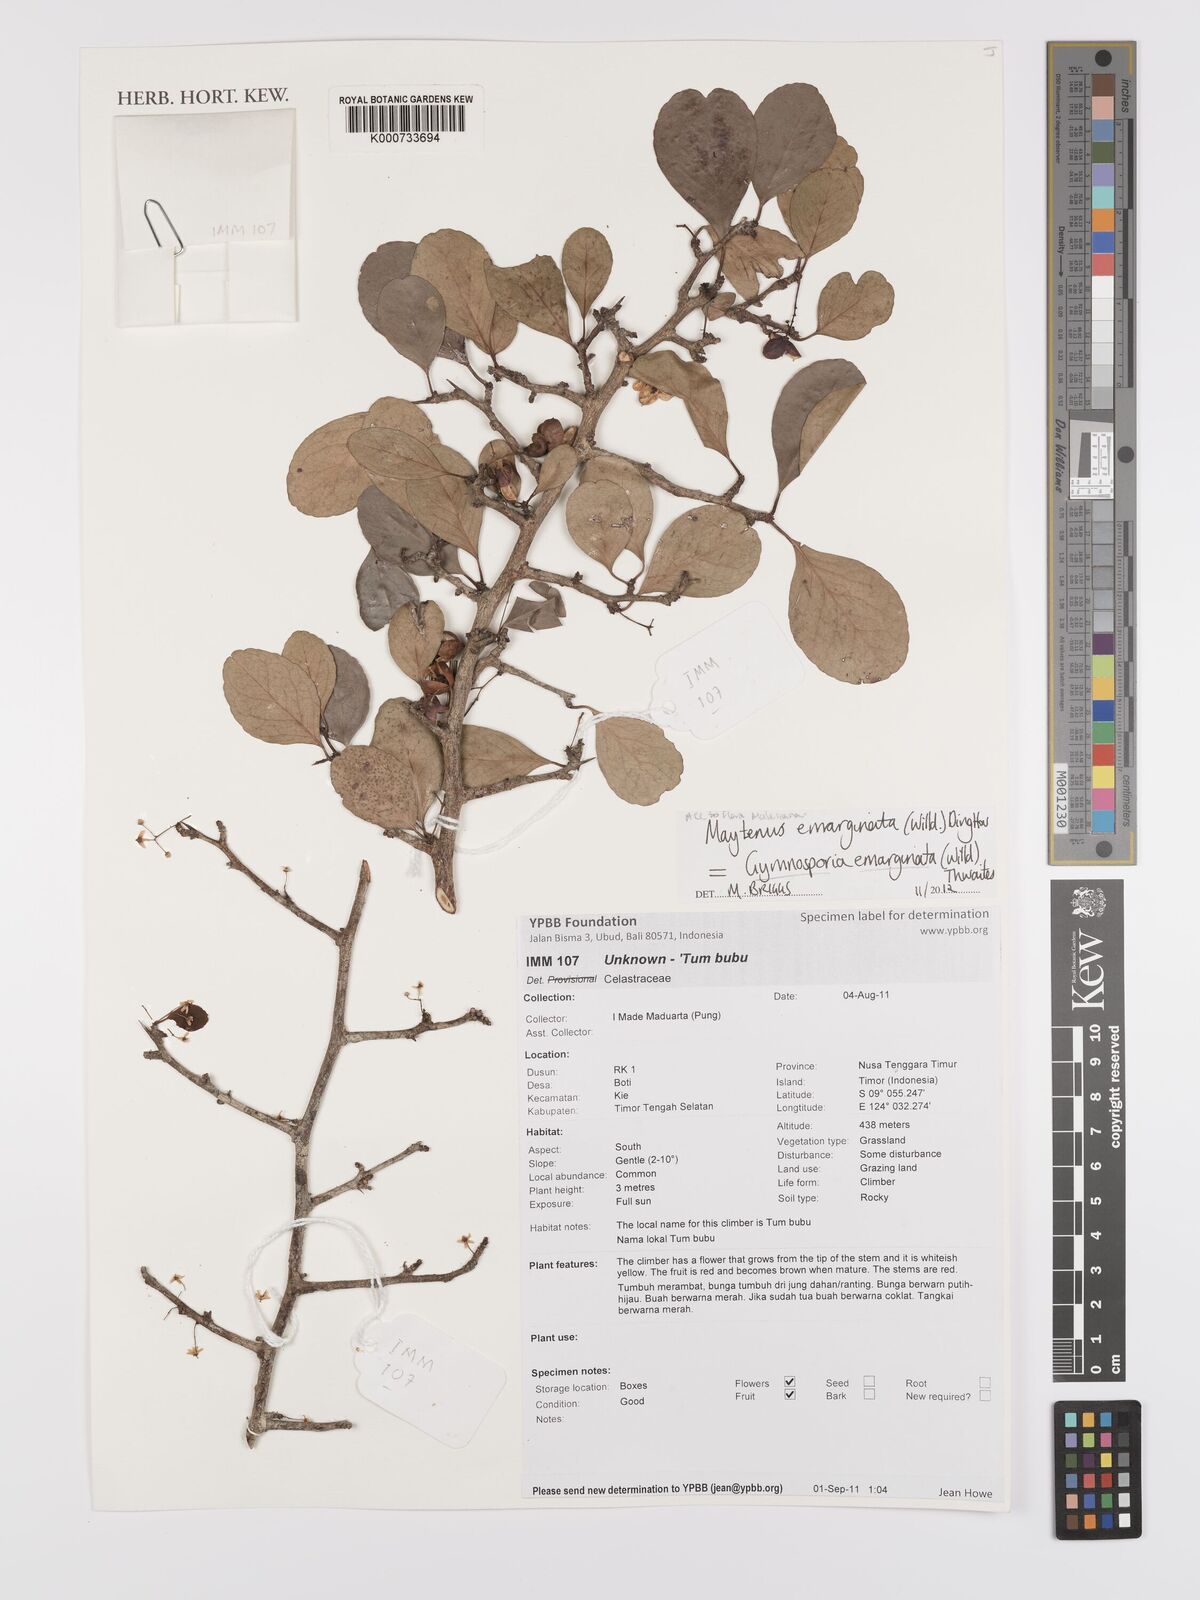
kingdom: Plantae
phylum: Tracheophyta
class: Magnoliopsida
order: Celastrales
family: Celastraceae
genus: Gymnosporia
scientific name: Gymnosporia emarginata
